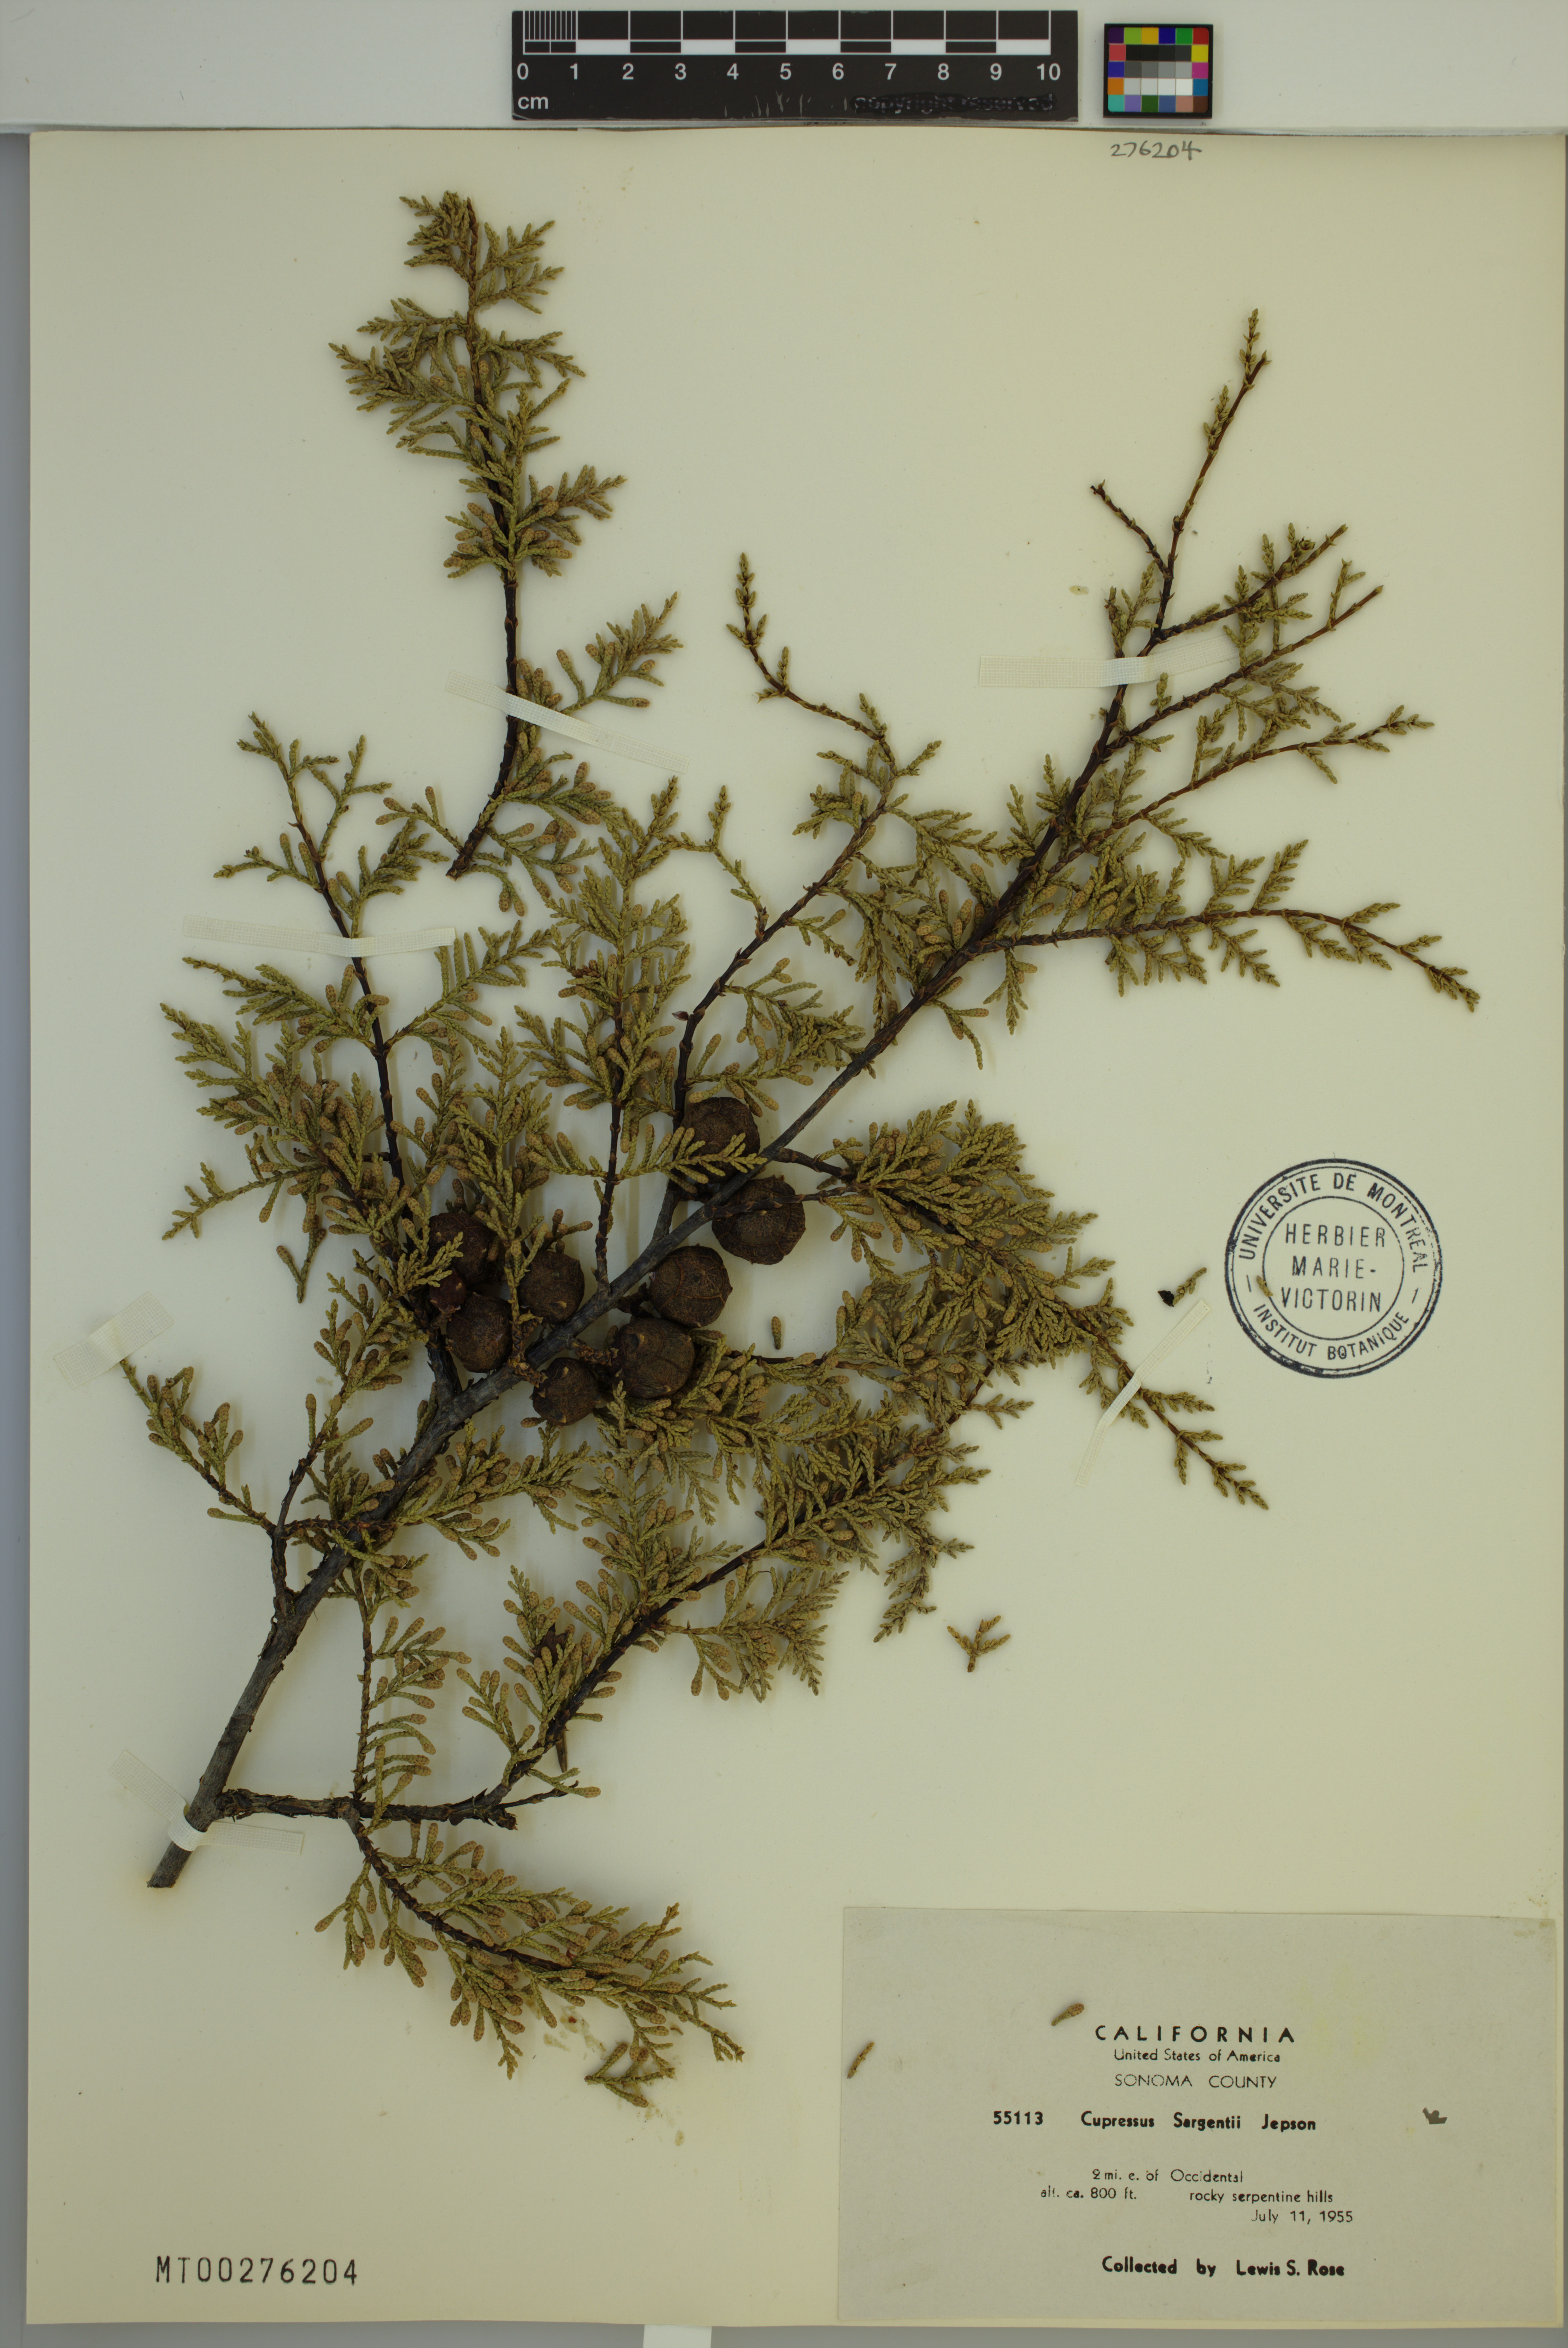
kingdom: Plantae
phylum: Tracheophyta
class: Pinopsida
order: Pinales
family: Cupressaceae
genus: Cupressus
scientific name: Cupressus sargentii
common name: Sargent cypress
